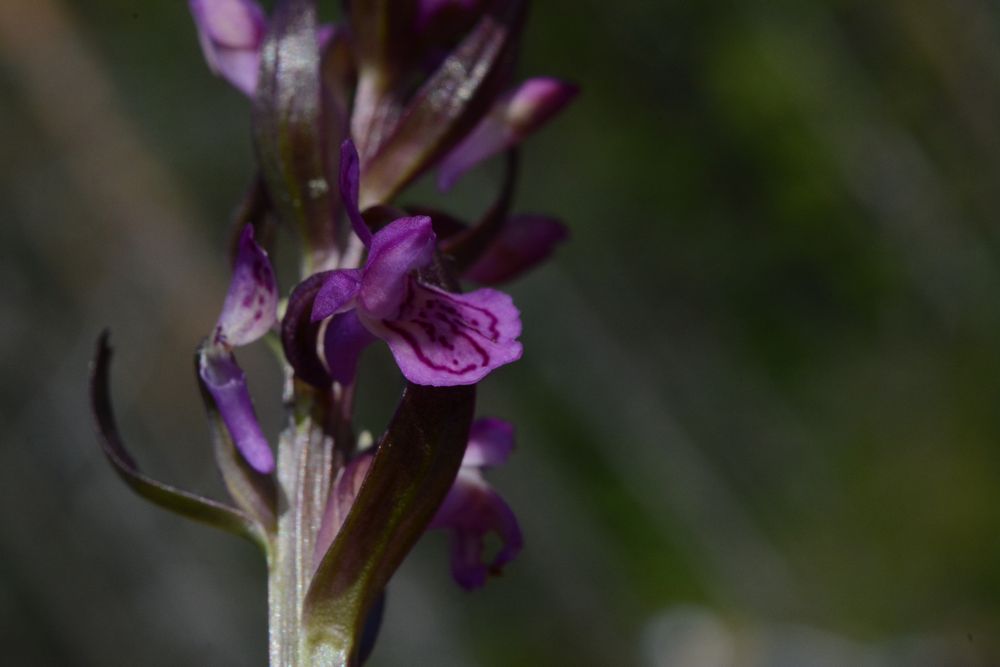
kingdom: Plantae
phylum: Tracheophyta
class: Liliopsida
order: Asparagales
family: Orchidaceae
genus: Dactylorhiza
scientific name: Dactylorhiza incarnata
